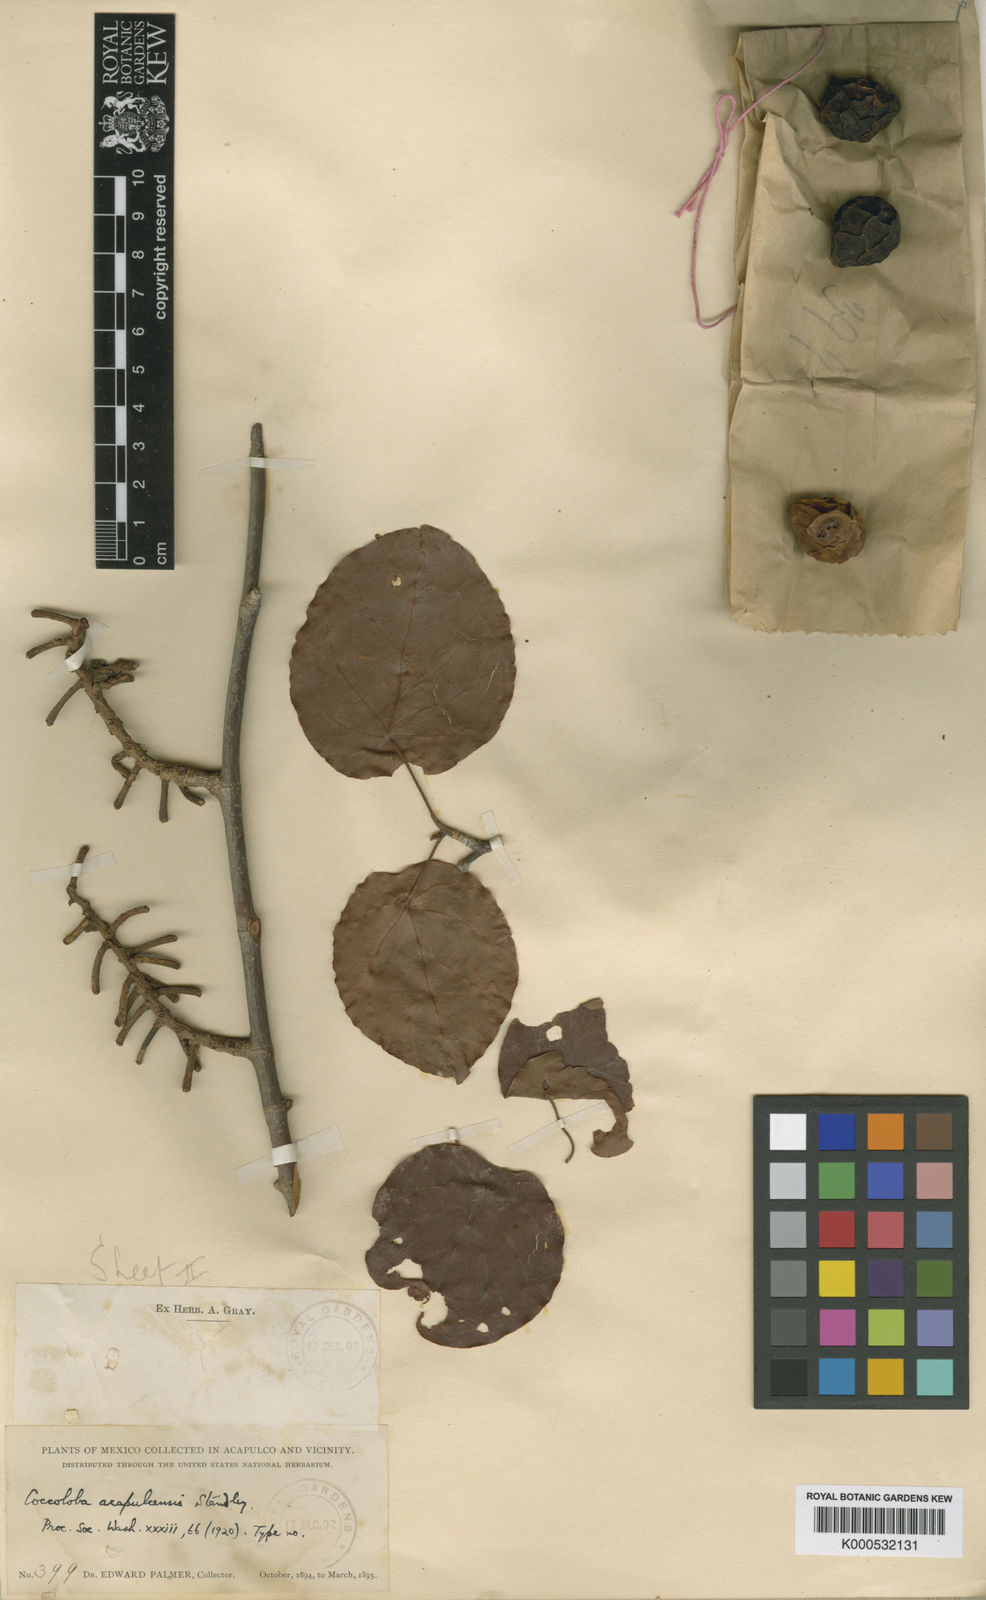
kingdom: Plantae
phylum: Tracheophyta
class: Magnoliopsida
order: Caryophyllales
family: Polygonaceae
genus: Coccoloba
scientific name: Coccoloba acapulcensis
